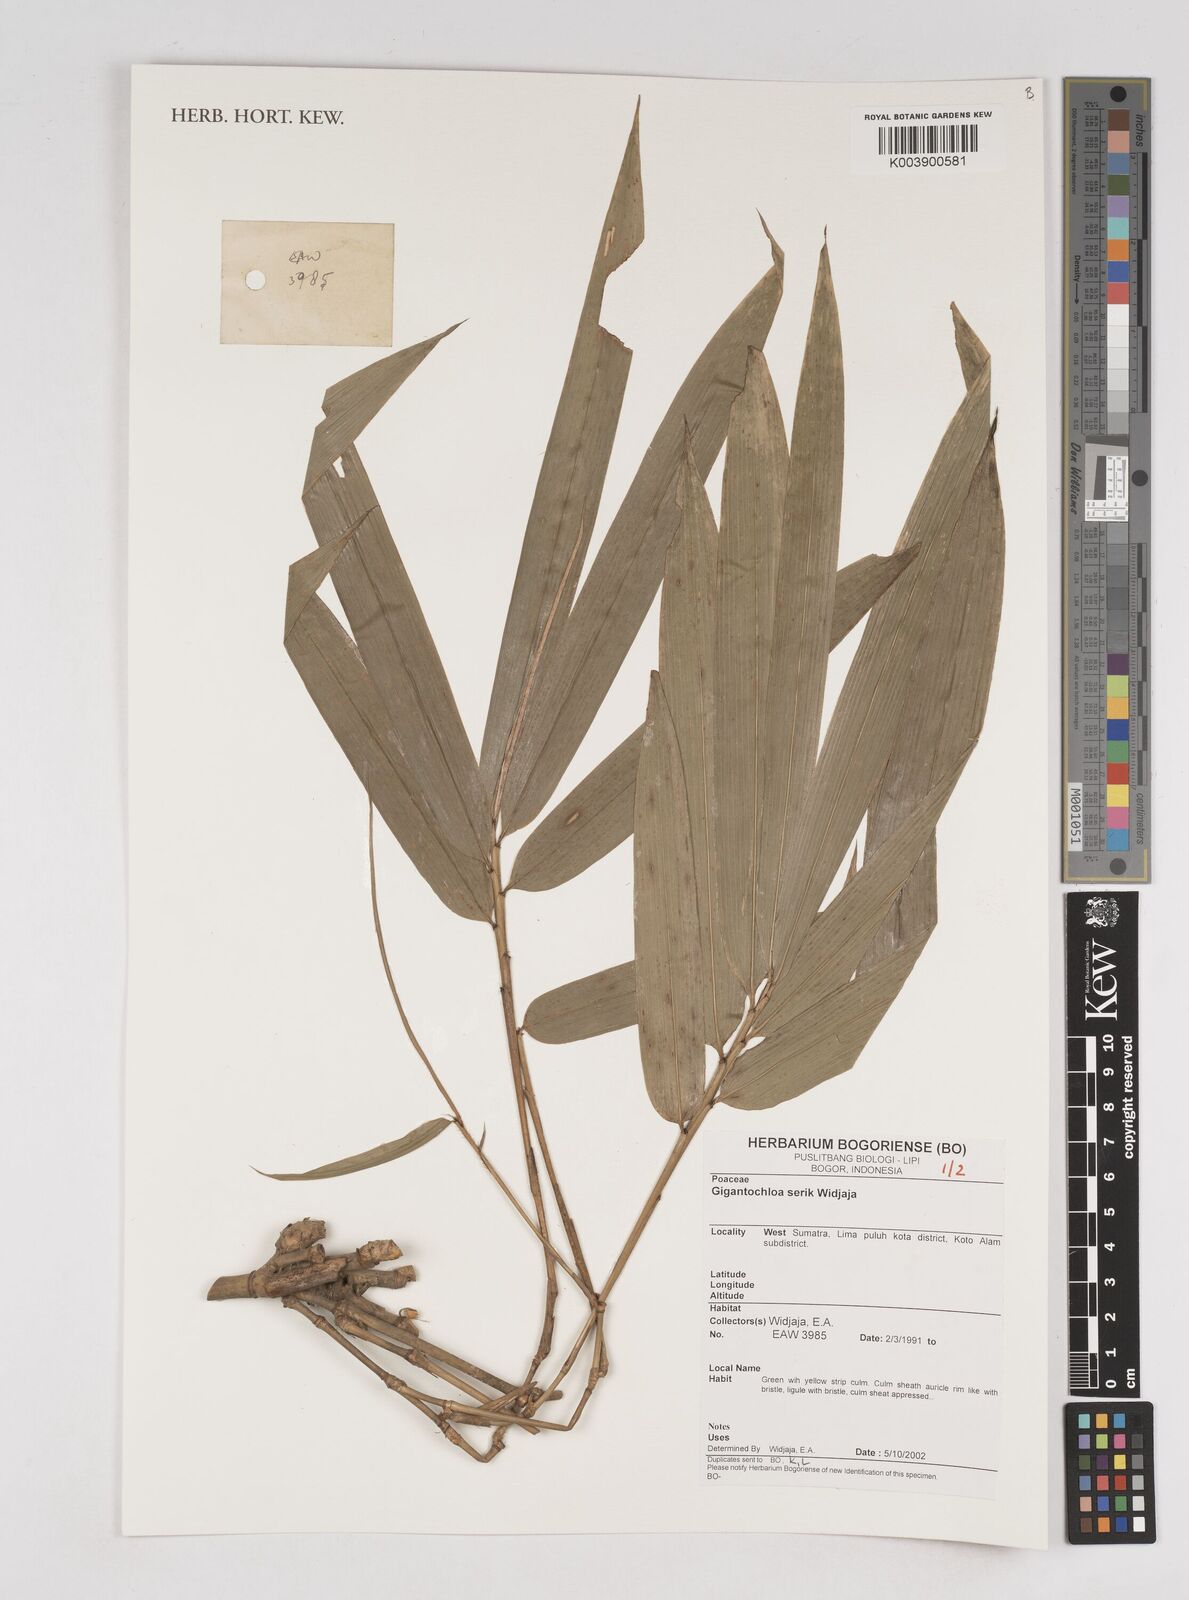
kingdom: Plantae
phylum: Tracheophyta
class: Liliopsida
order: Poales
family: Poaceae
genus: Gigantochloa
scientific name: Gigantochloa serik
